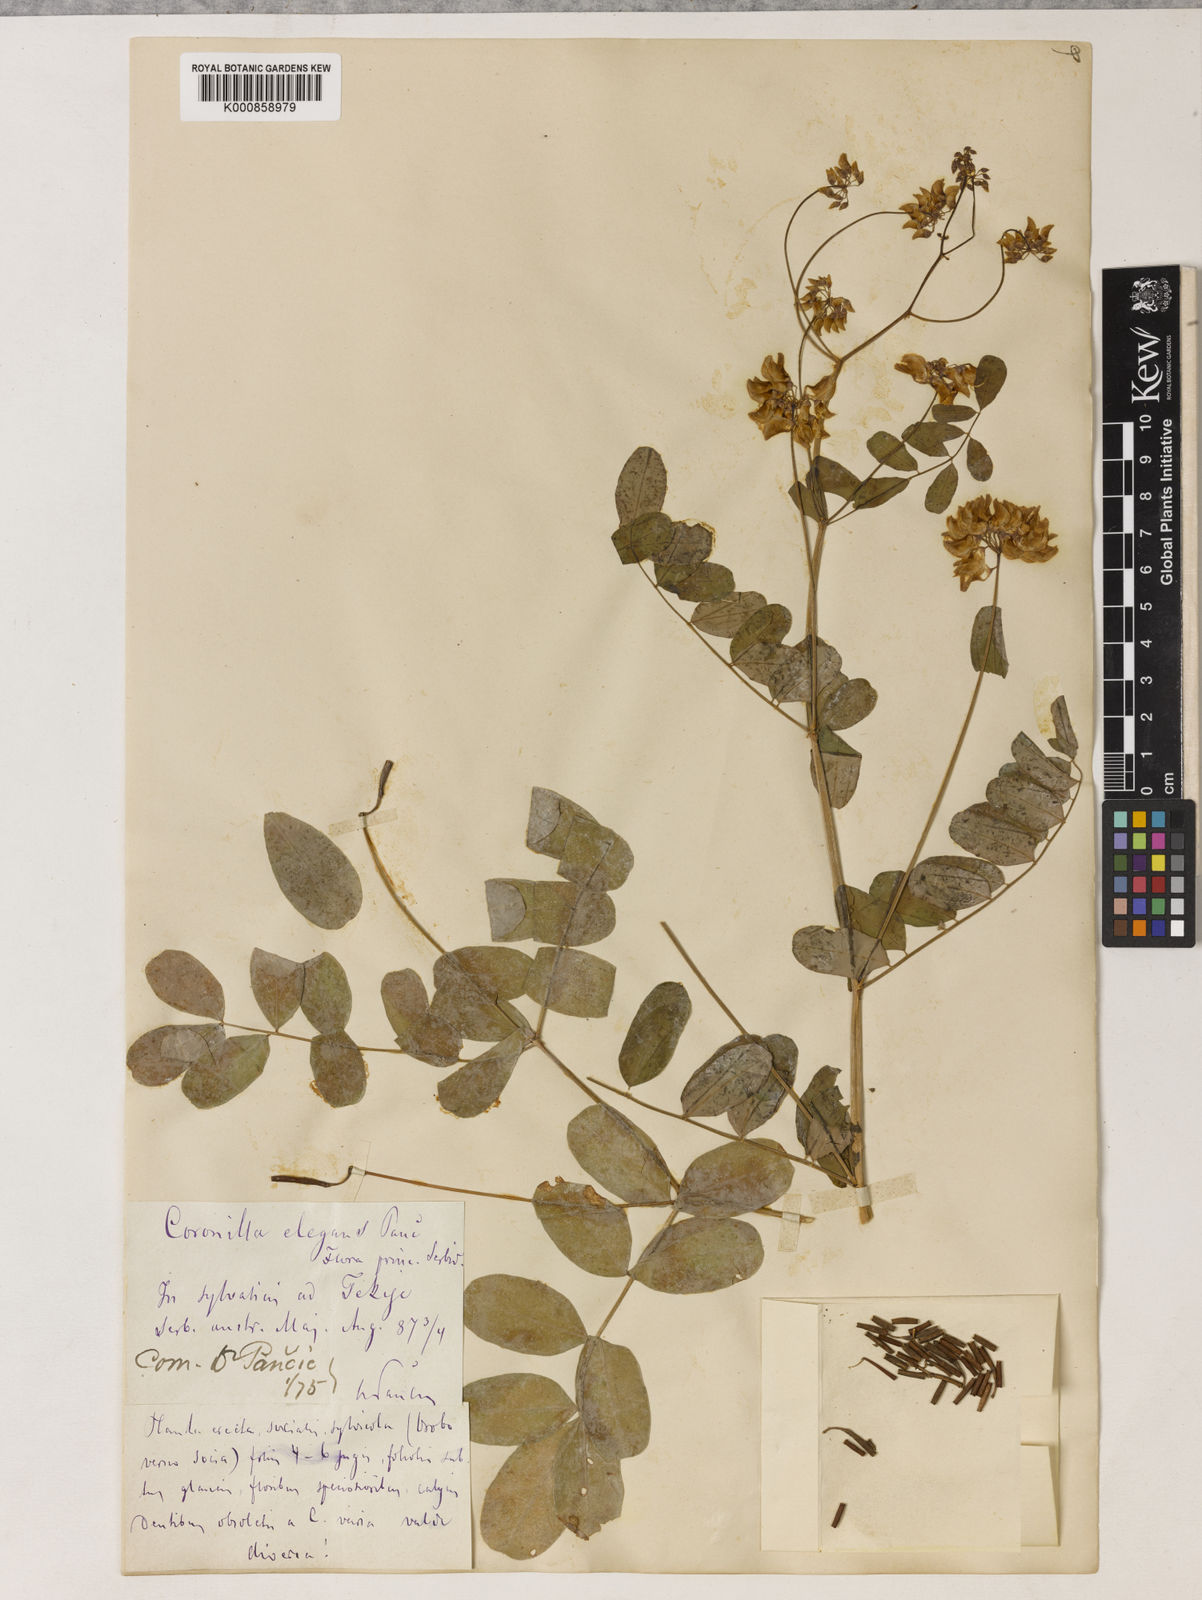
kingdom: Plantae
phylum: Tracheophyta
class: Magnoliopsida
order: Fabales
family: Fabaceae
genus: Coronilla
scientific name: Coronilla elegans
